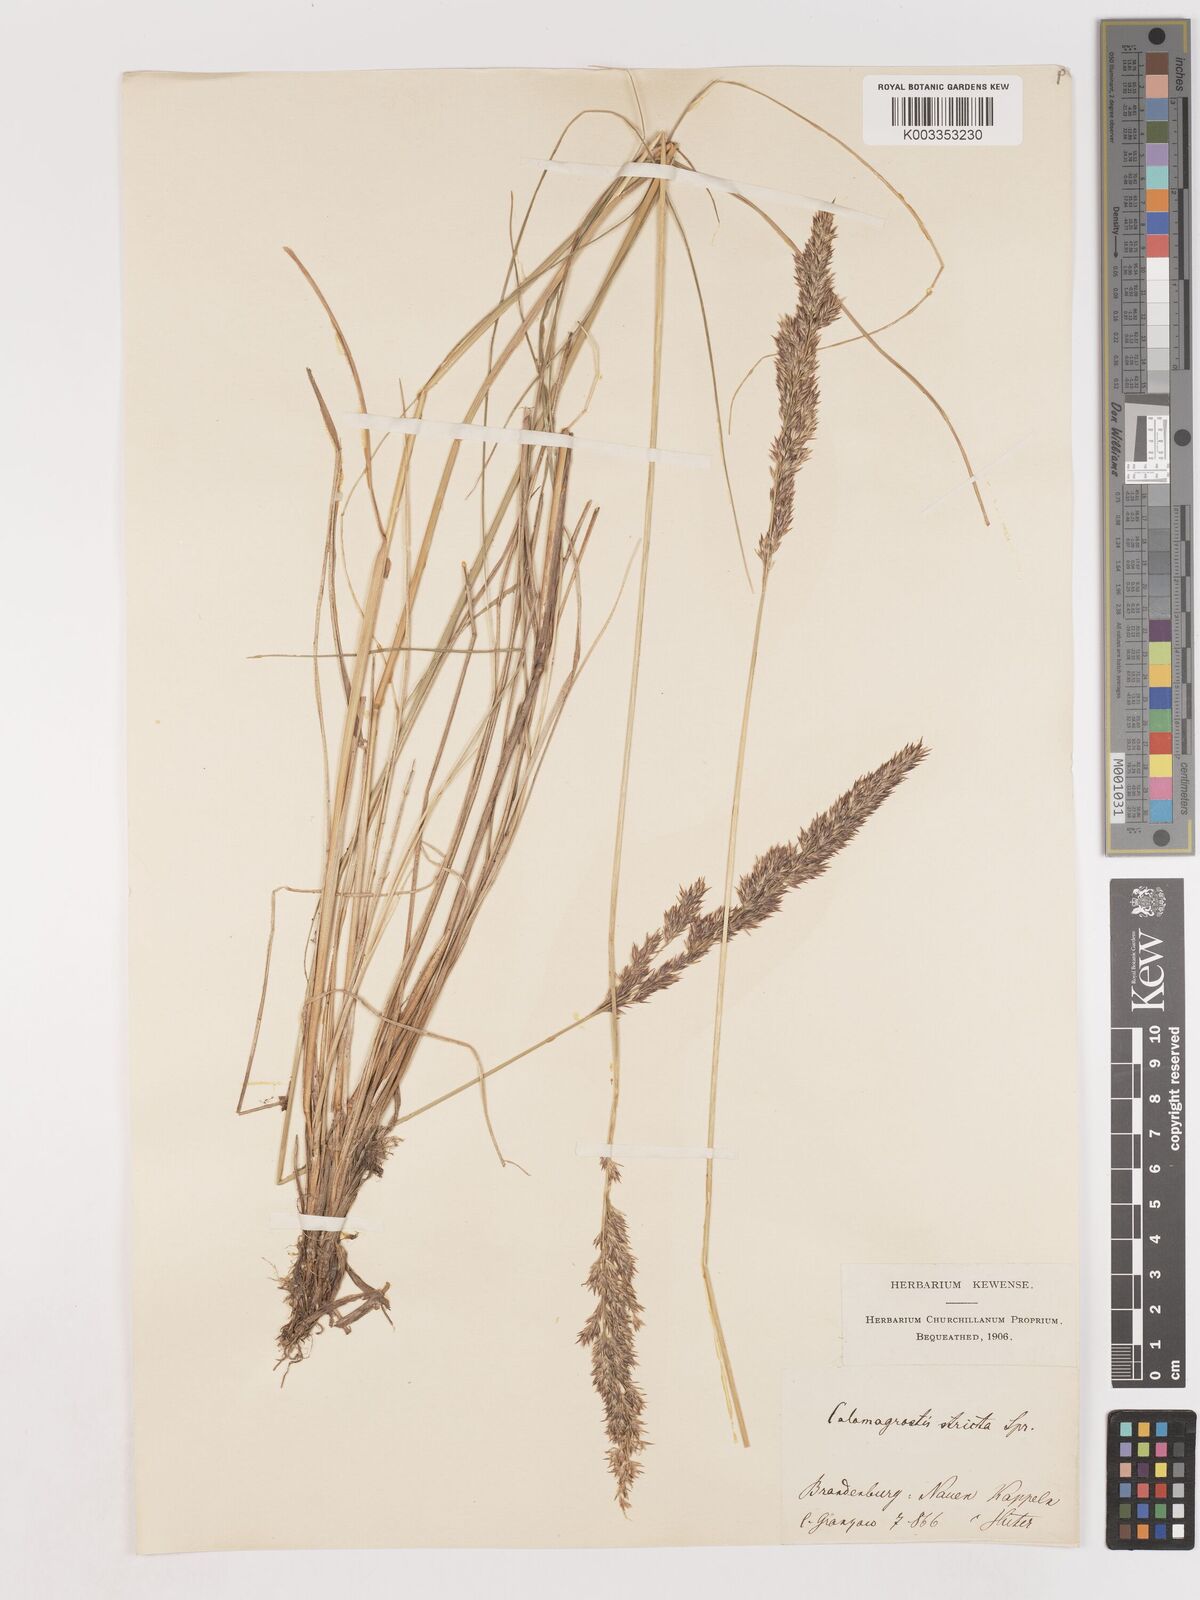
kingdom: Plantae
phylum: Tracheophyta
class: Liliopsida
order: Poales
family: Poaceae
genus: Cinnagrostis
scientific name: Cinnagrostis recta
